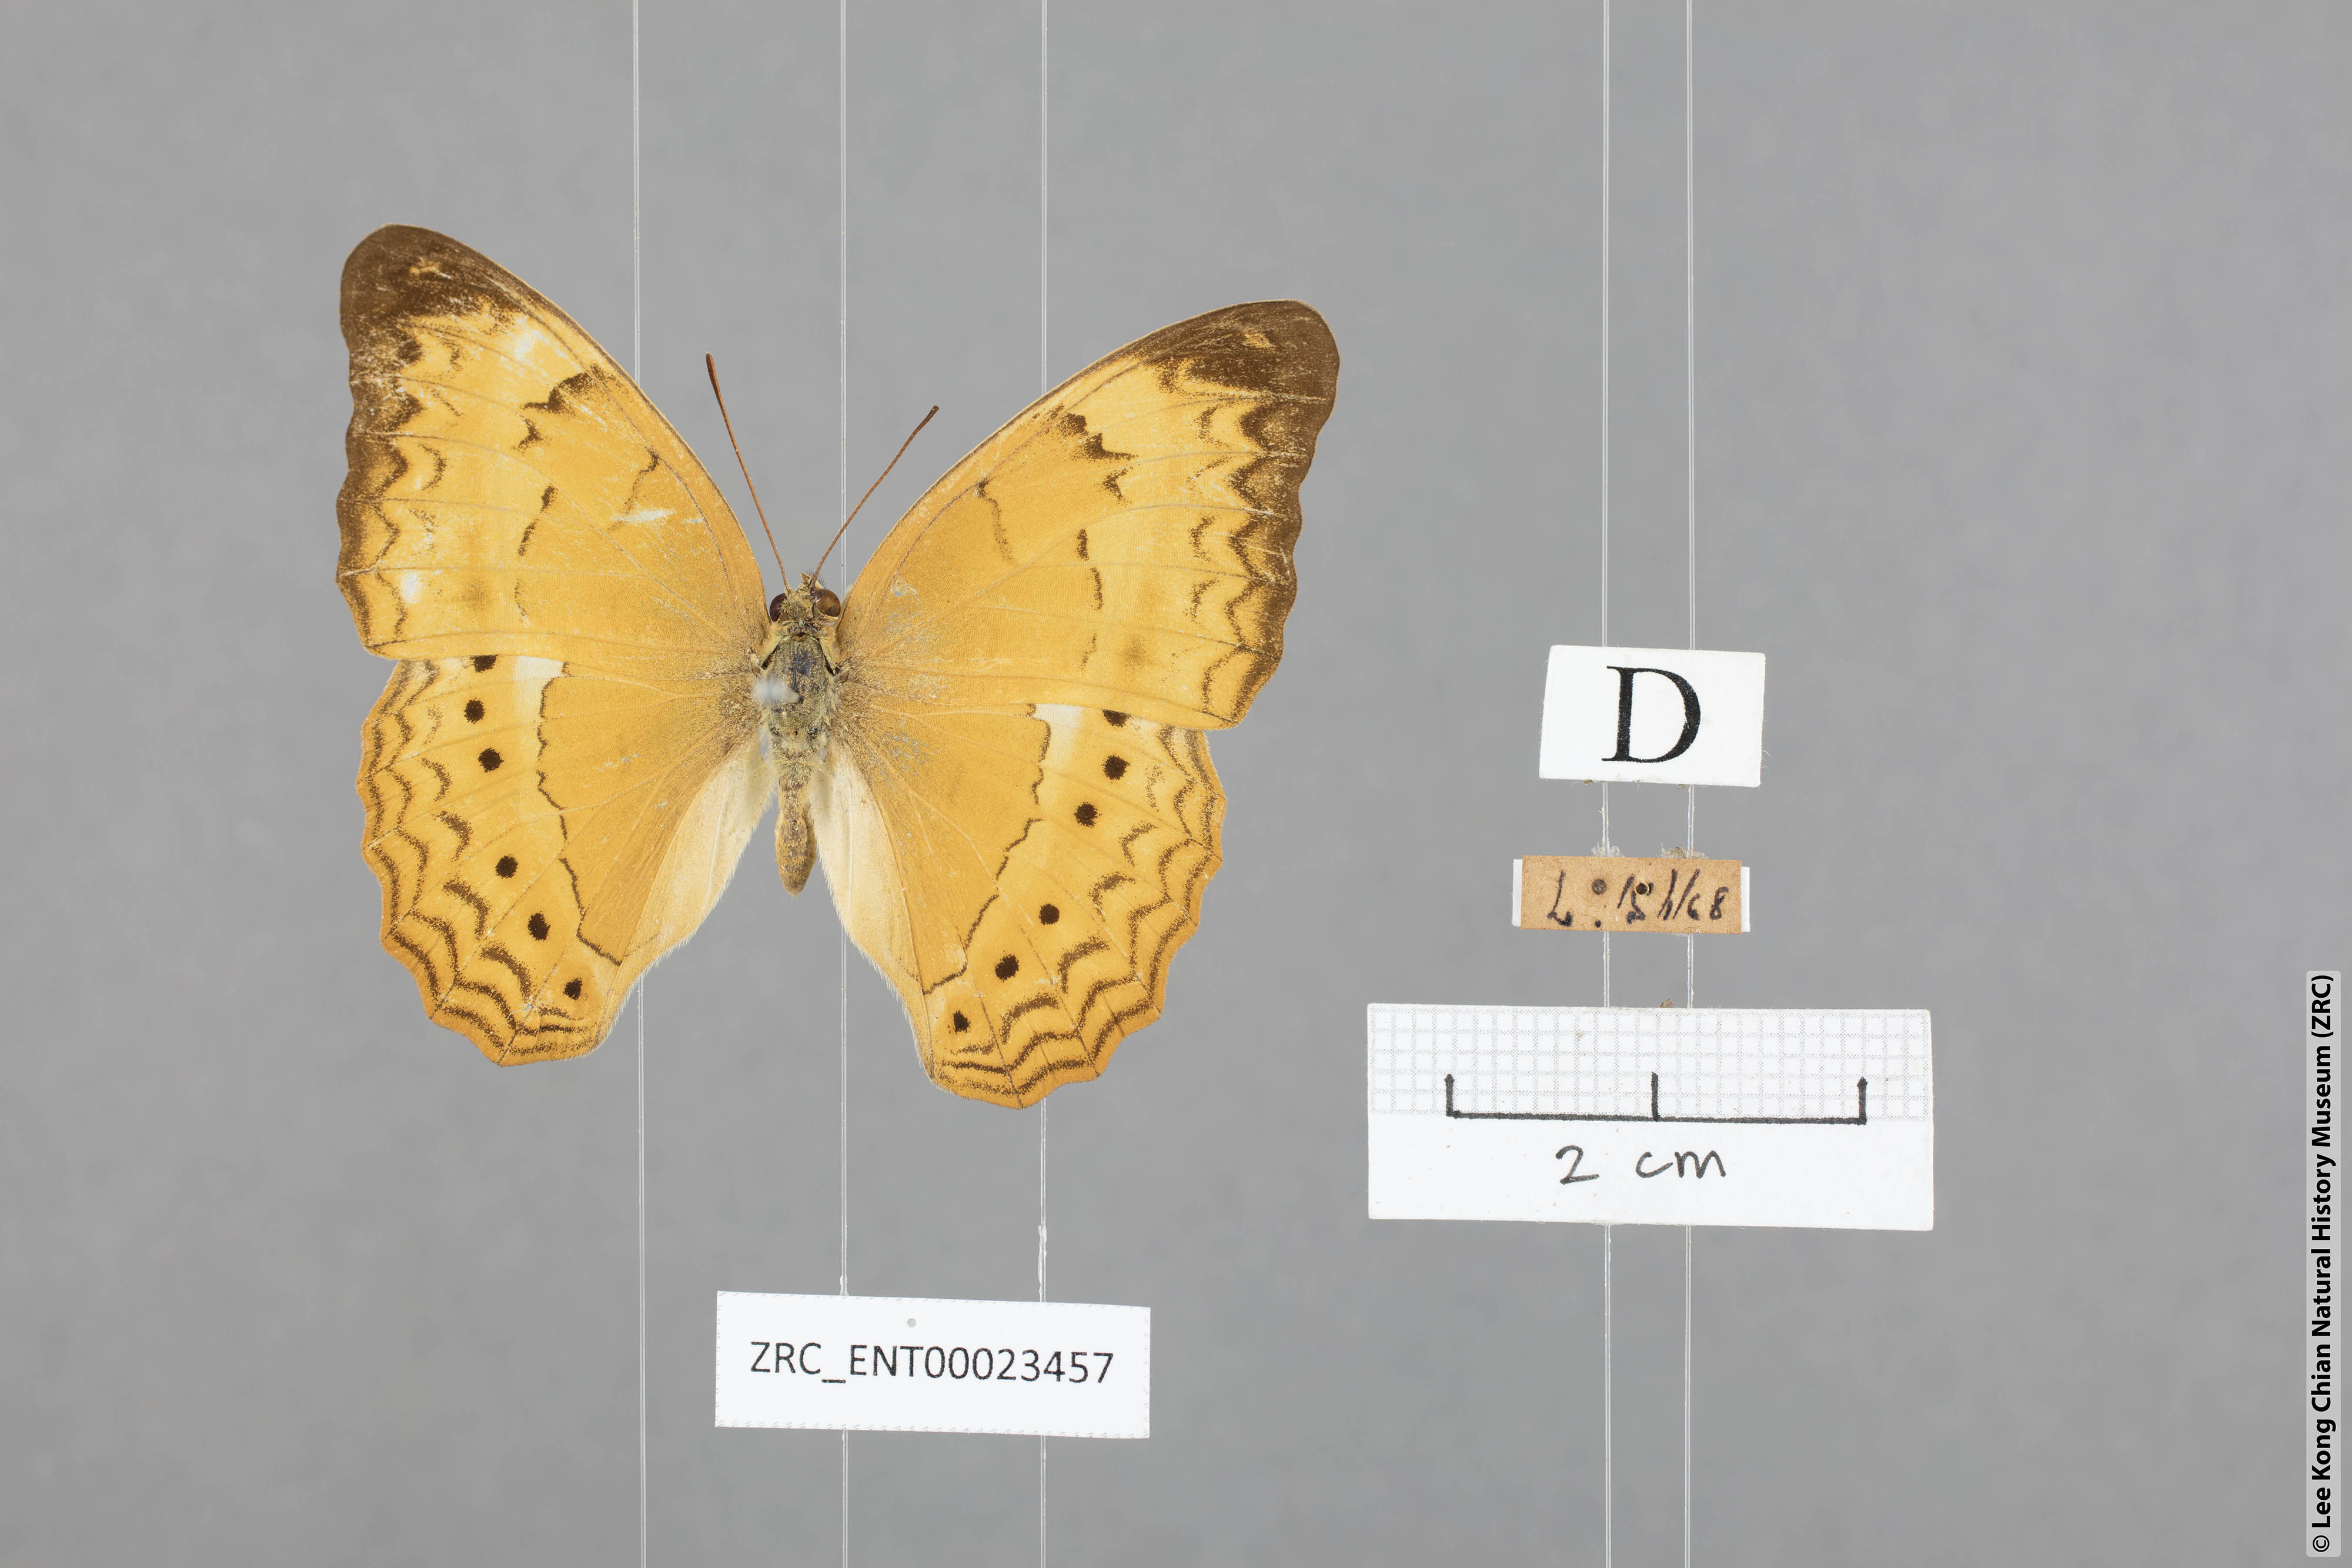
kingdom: Animalia
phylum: Arthropoda
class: Insecta
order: Lepidoptera
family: Nymphalidae
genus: Cirrochroa
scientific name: Cirrochroa surya
